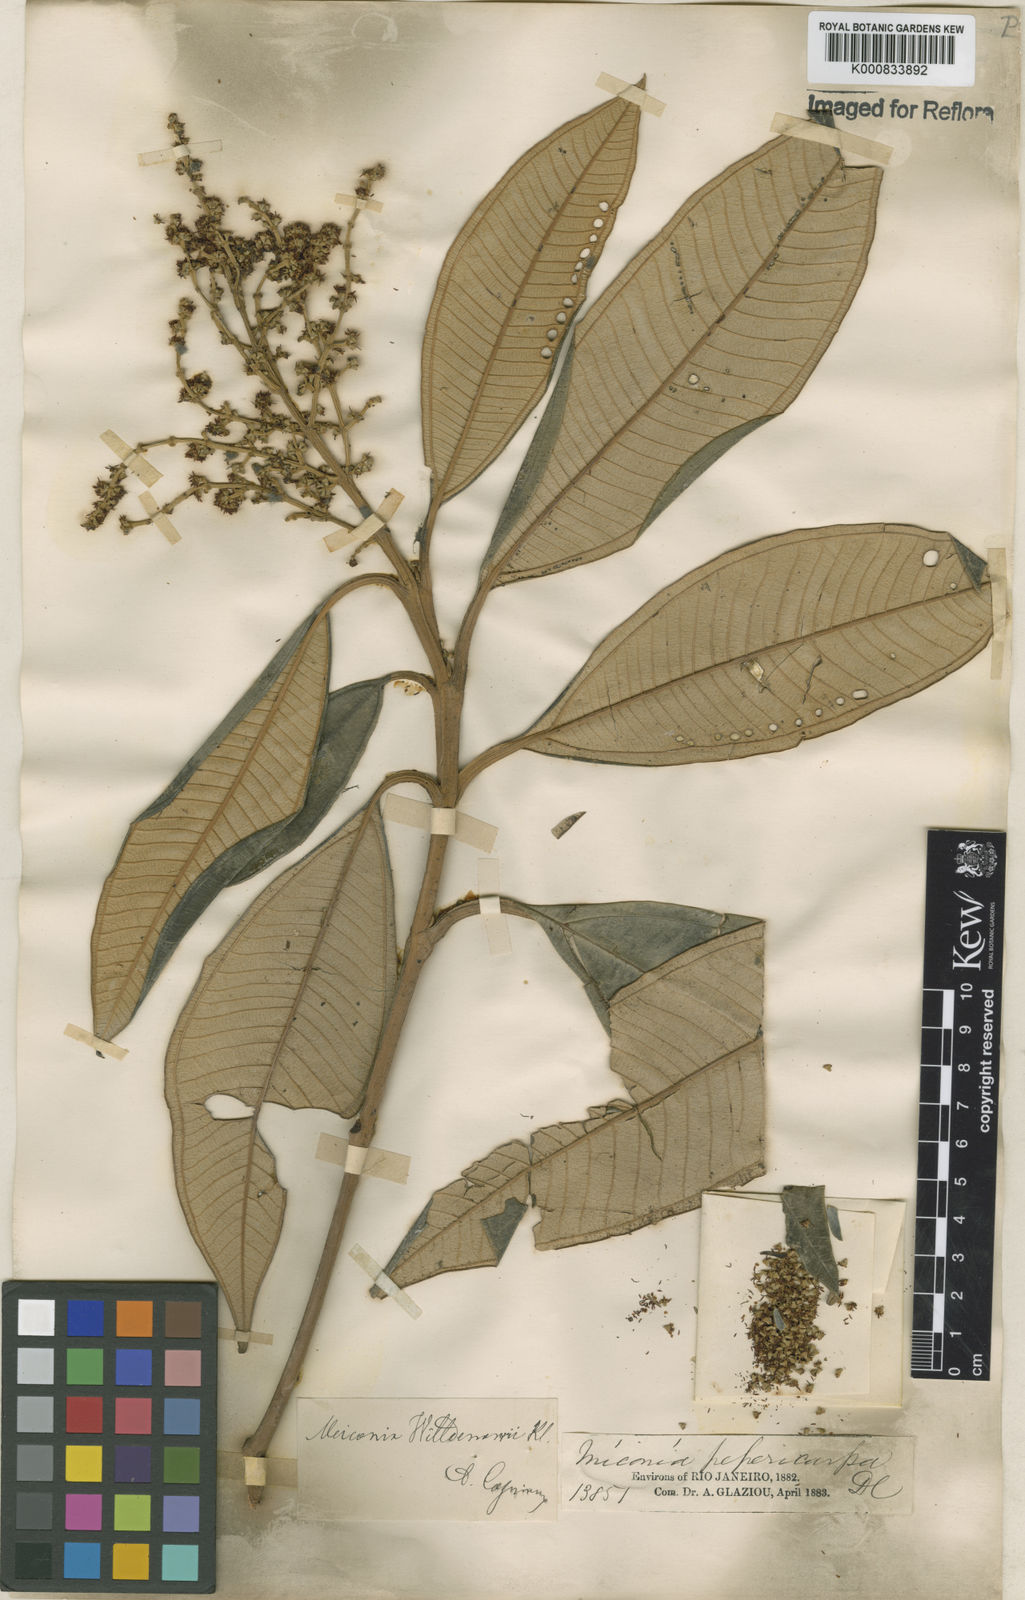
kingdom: Plantae
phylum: Tracheophyta
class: Magnoliopsida
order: Myrtales
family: Melastomataceae
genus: Miconia
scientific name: Miconia willdenowii
